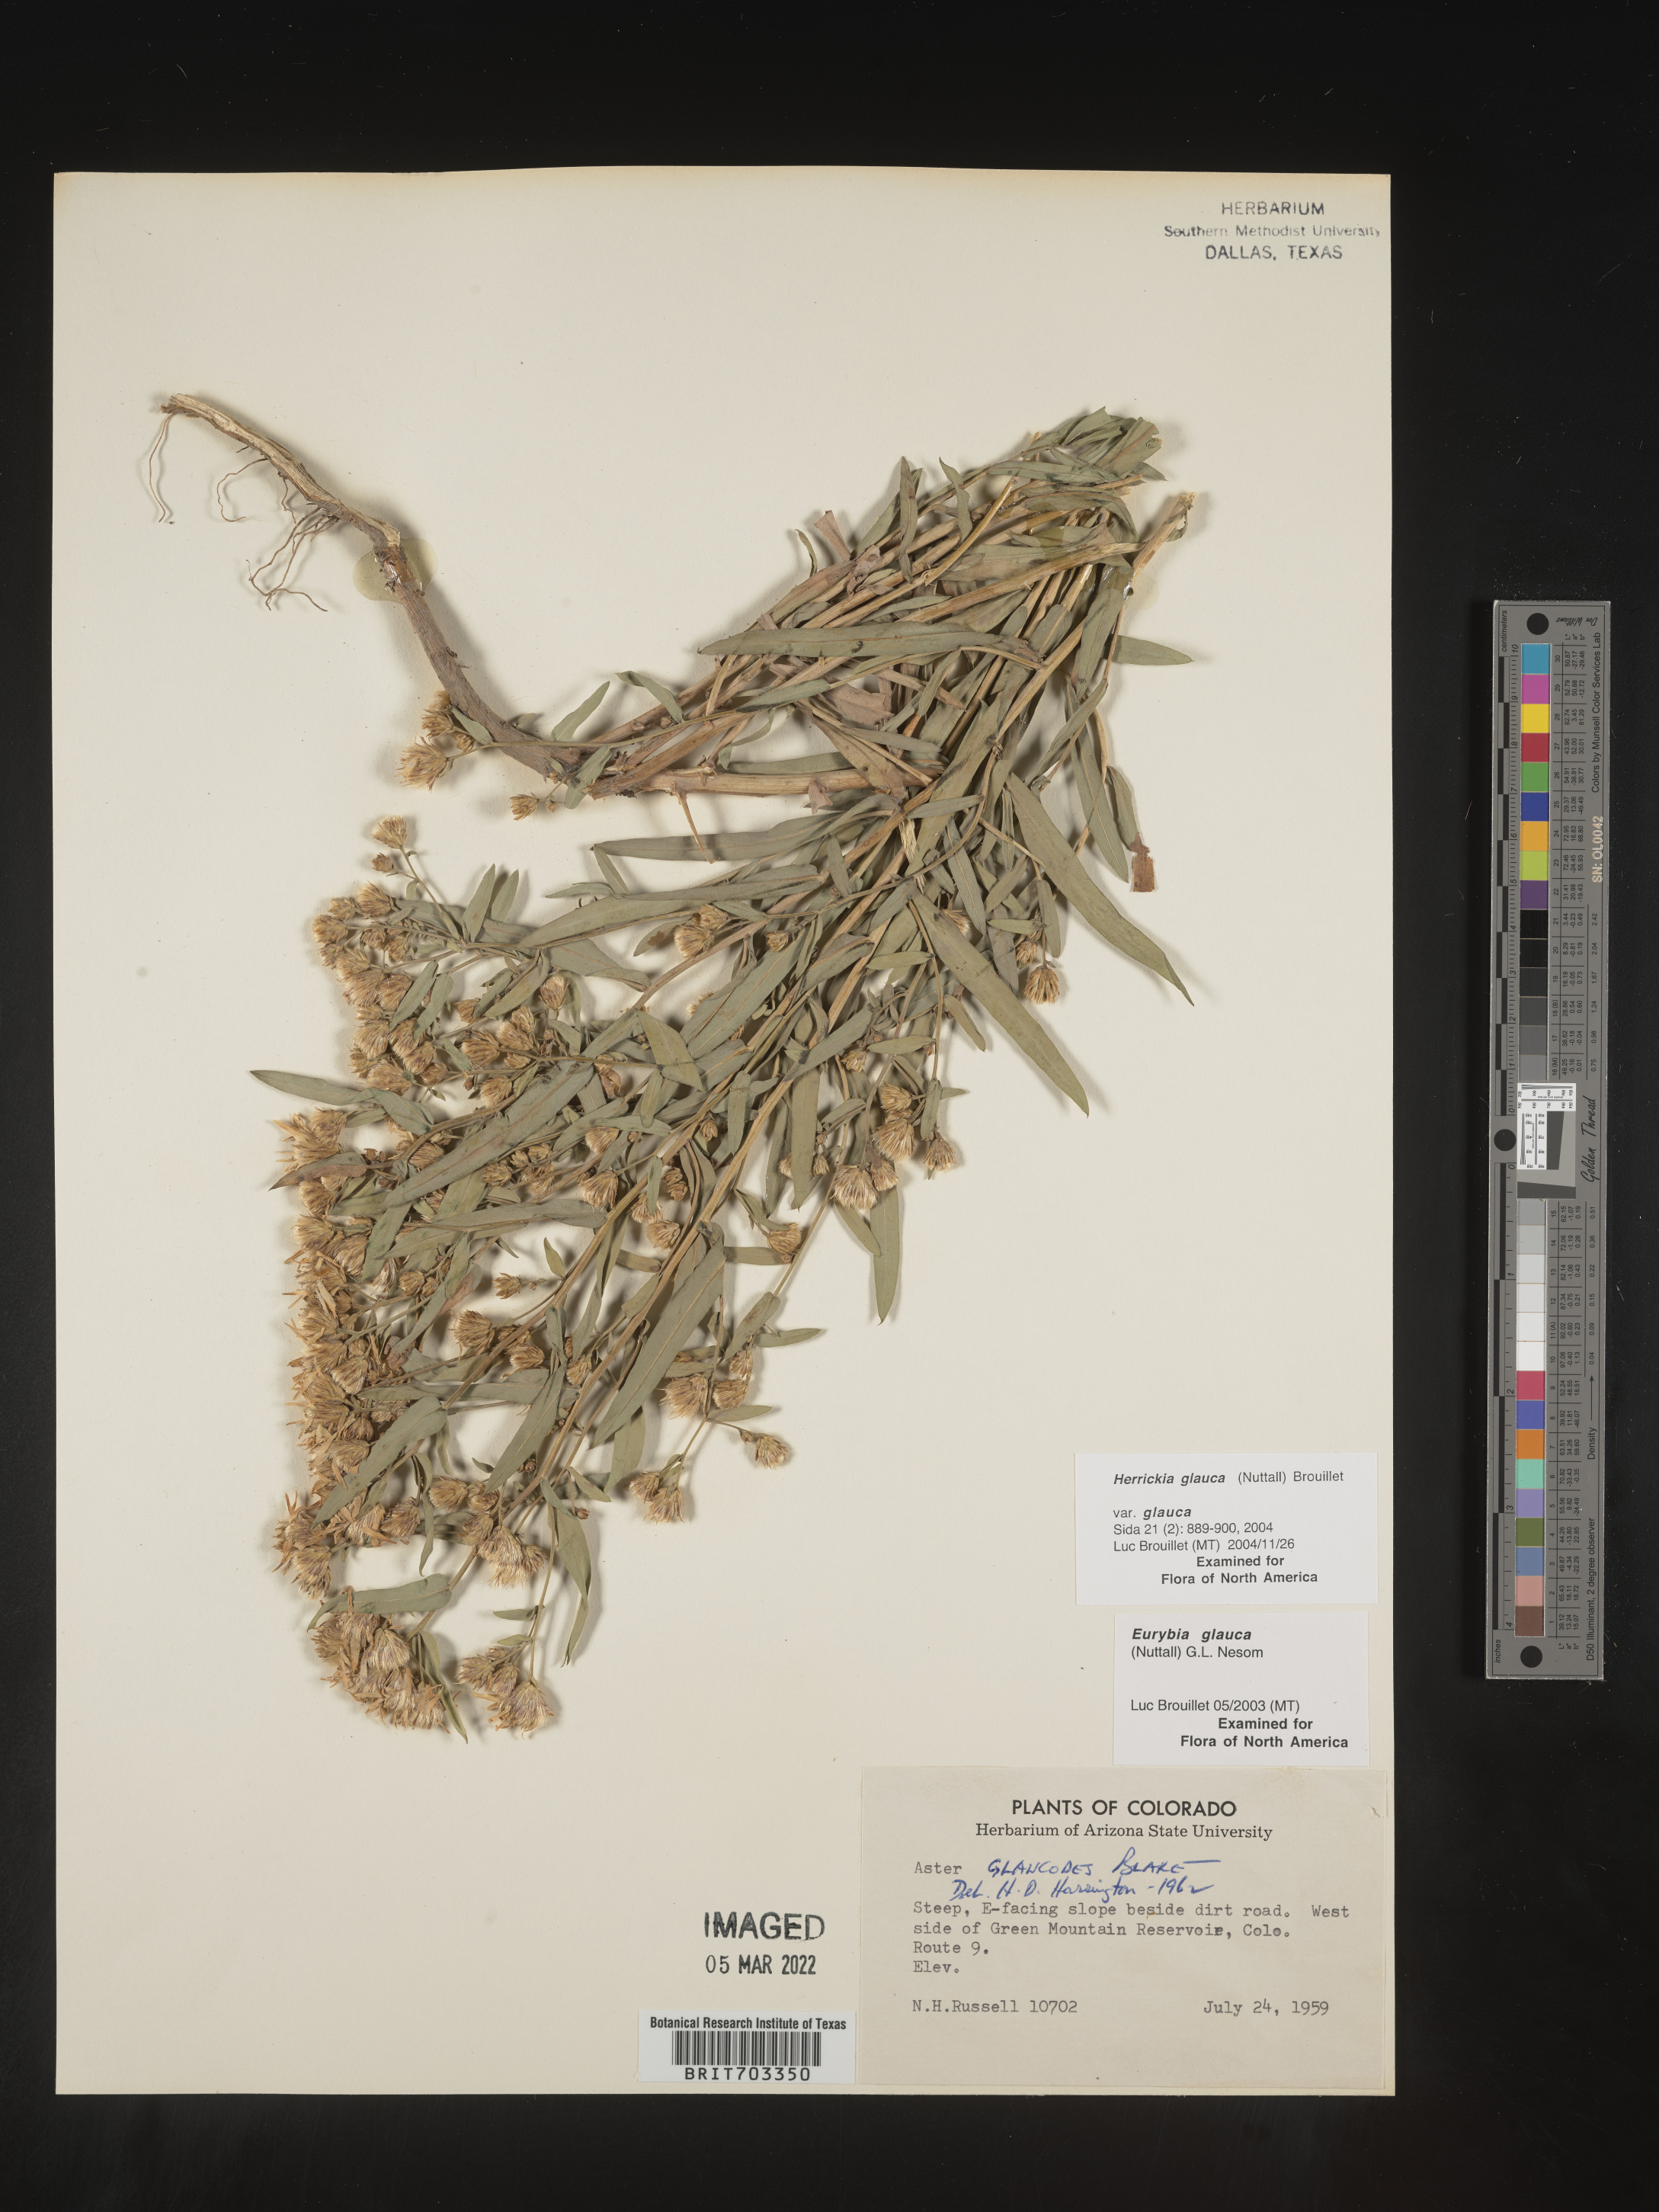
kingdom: Plantae
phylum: Tracheophyta
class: Magnoliopsida
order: Asterales
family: Asteraceae
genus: Eurybia
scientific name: Eurybia glauca
